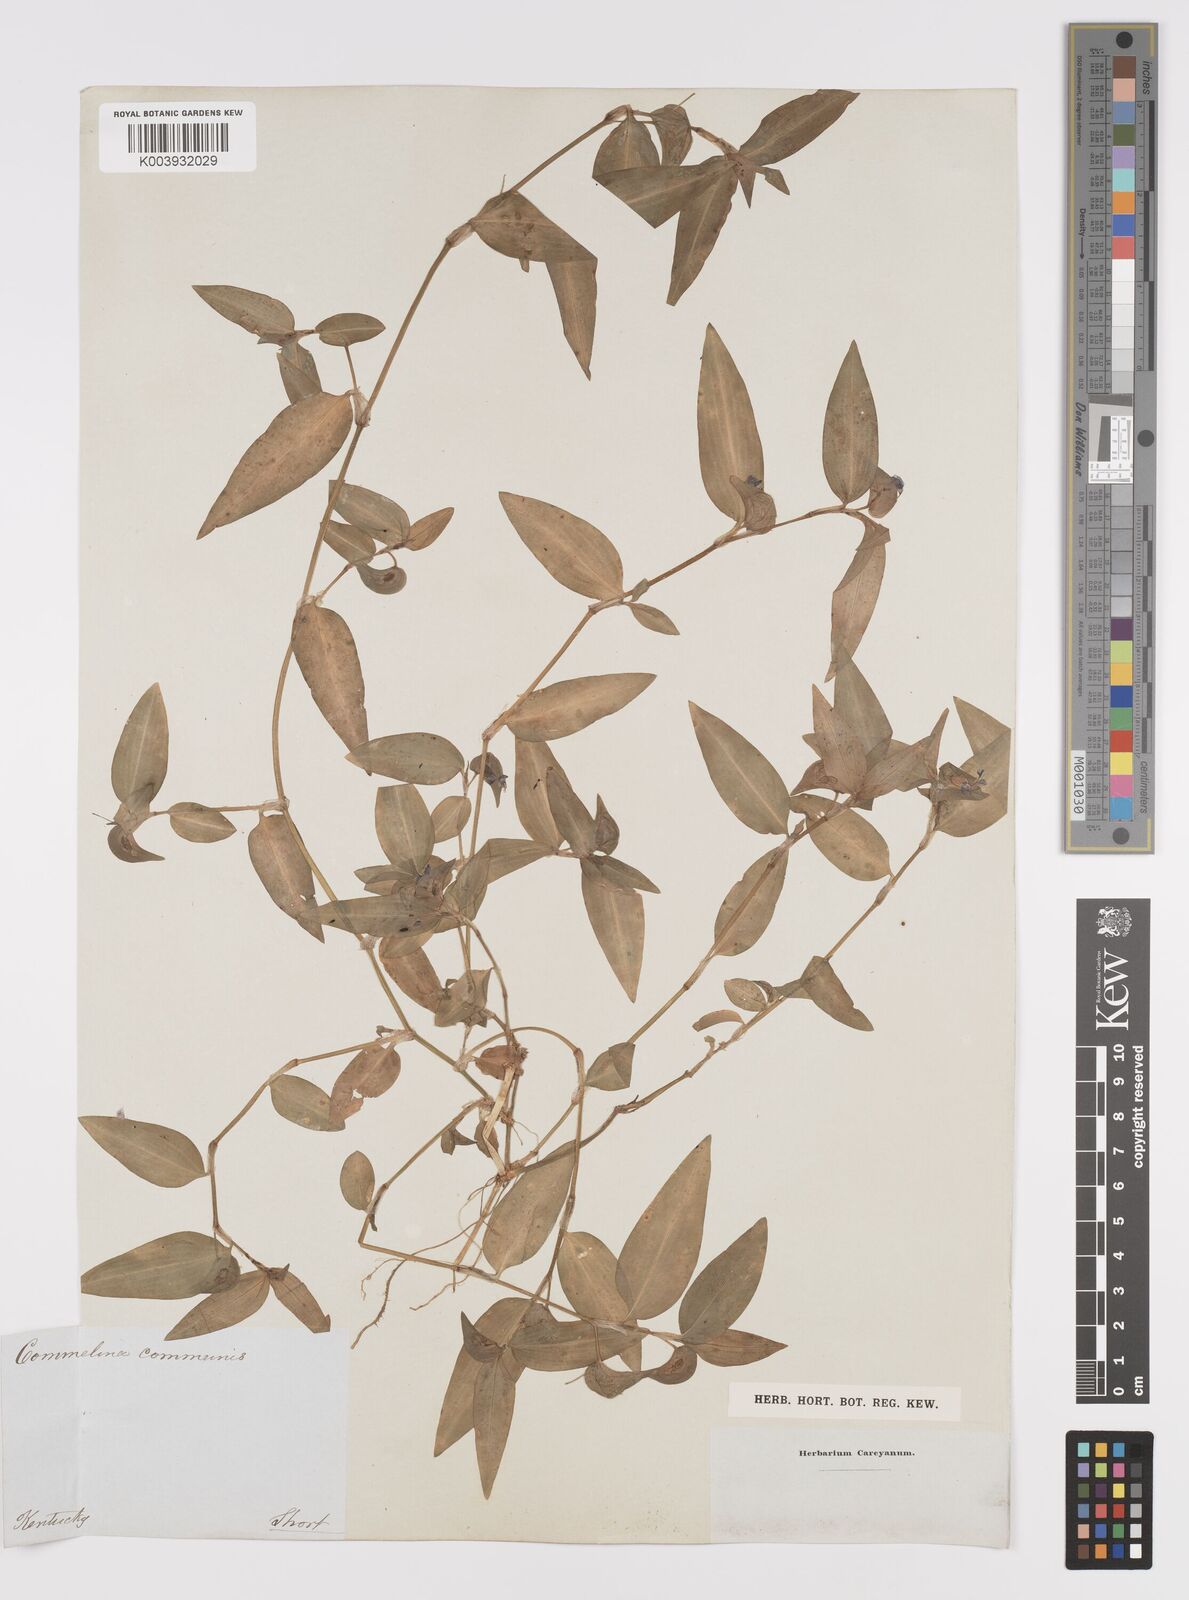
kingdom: Plantae
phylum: Tracheophyta
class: Liliopsida
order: Commelinales
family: Commelinaceae
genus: Commelina
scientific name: Commelina diffusa
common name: Climbing dayflower
